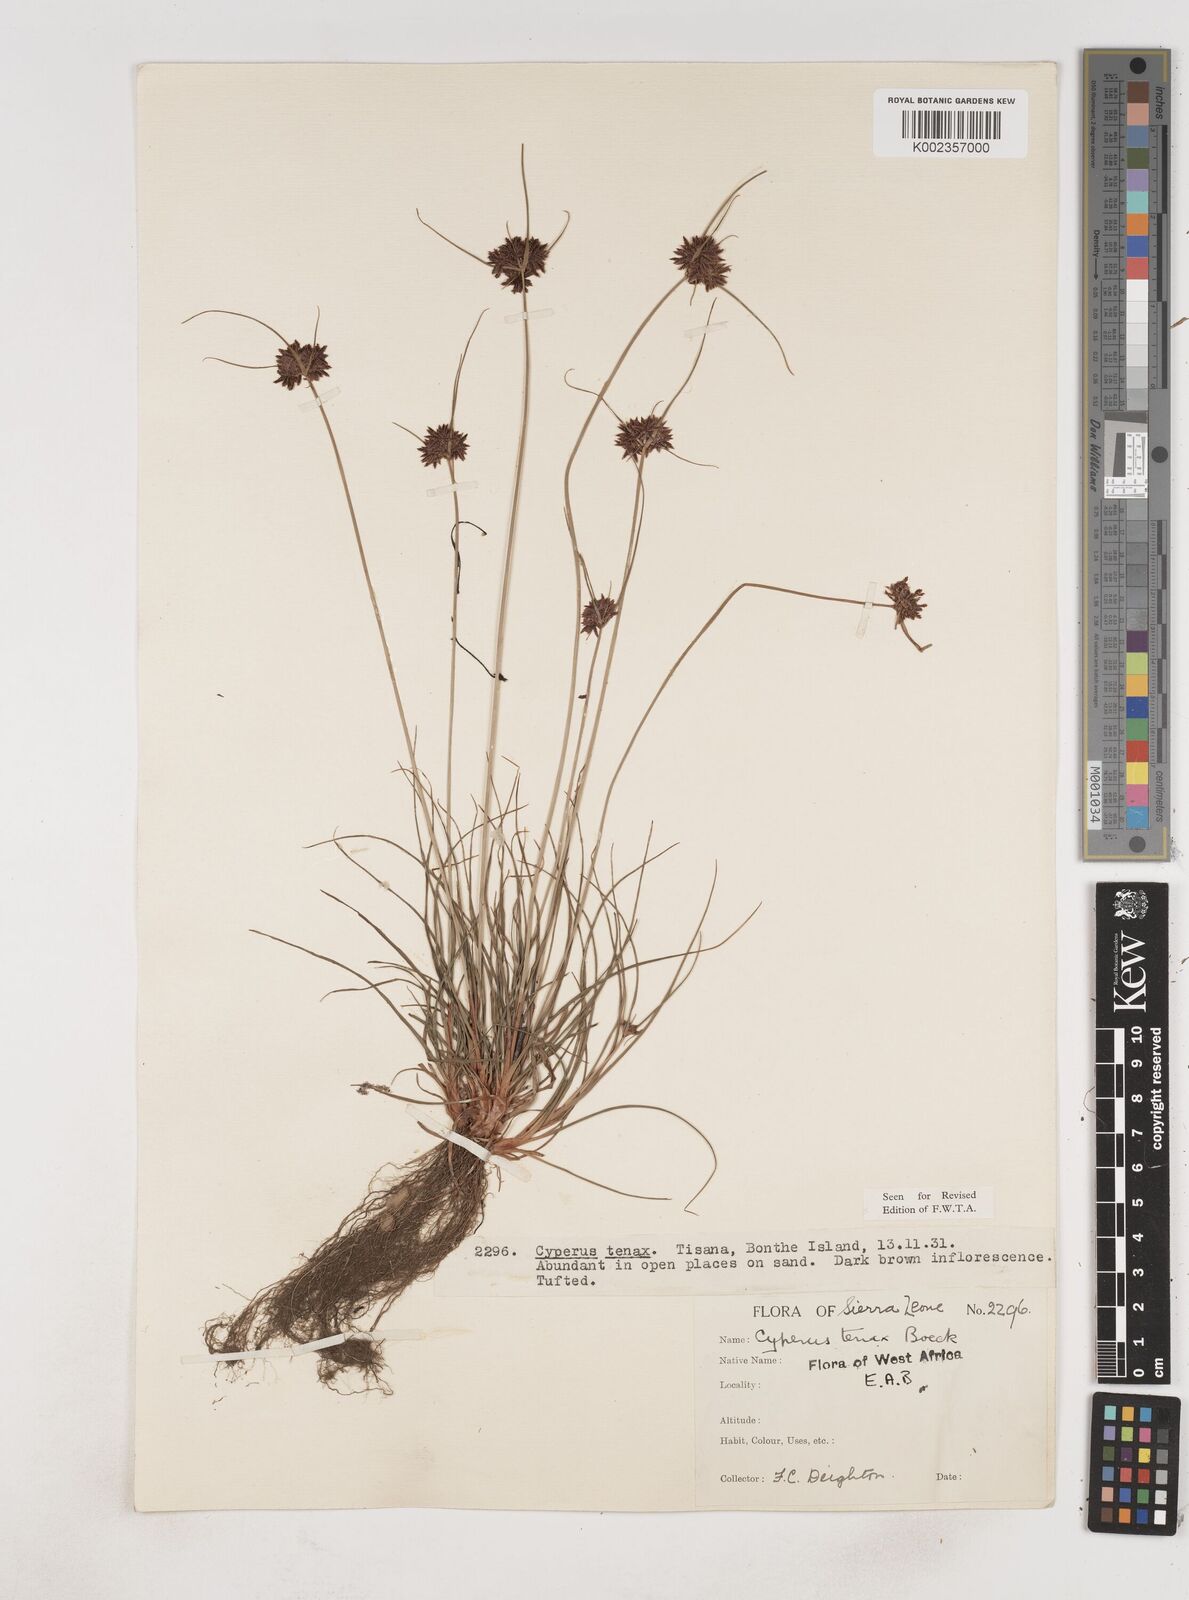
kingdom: Plantae
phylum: Tracheophyta
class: Liliopsida
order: Poales
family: Cyperaceae
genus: Cyperus
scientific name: Cyperus tenax
